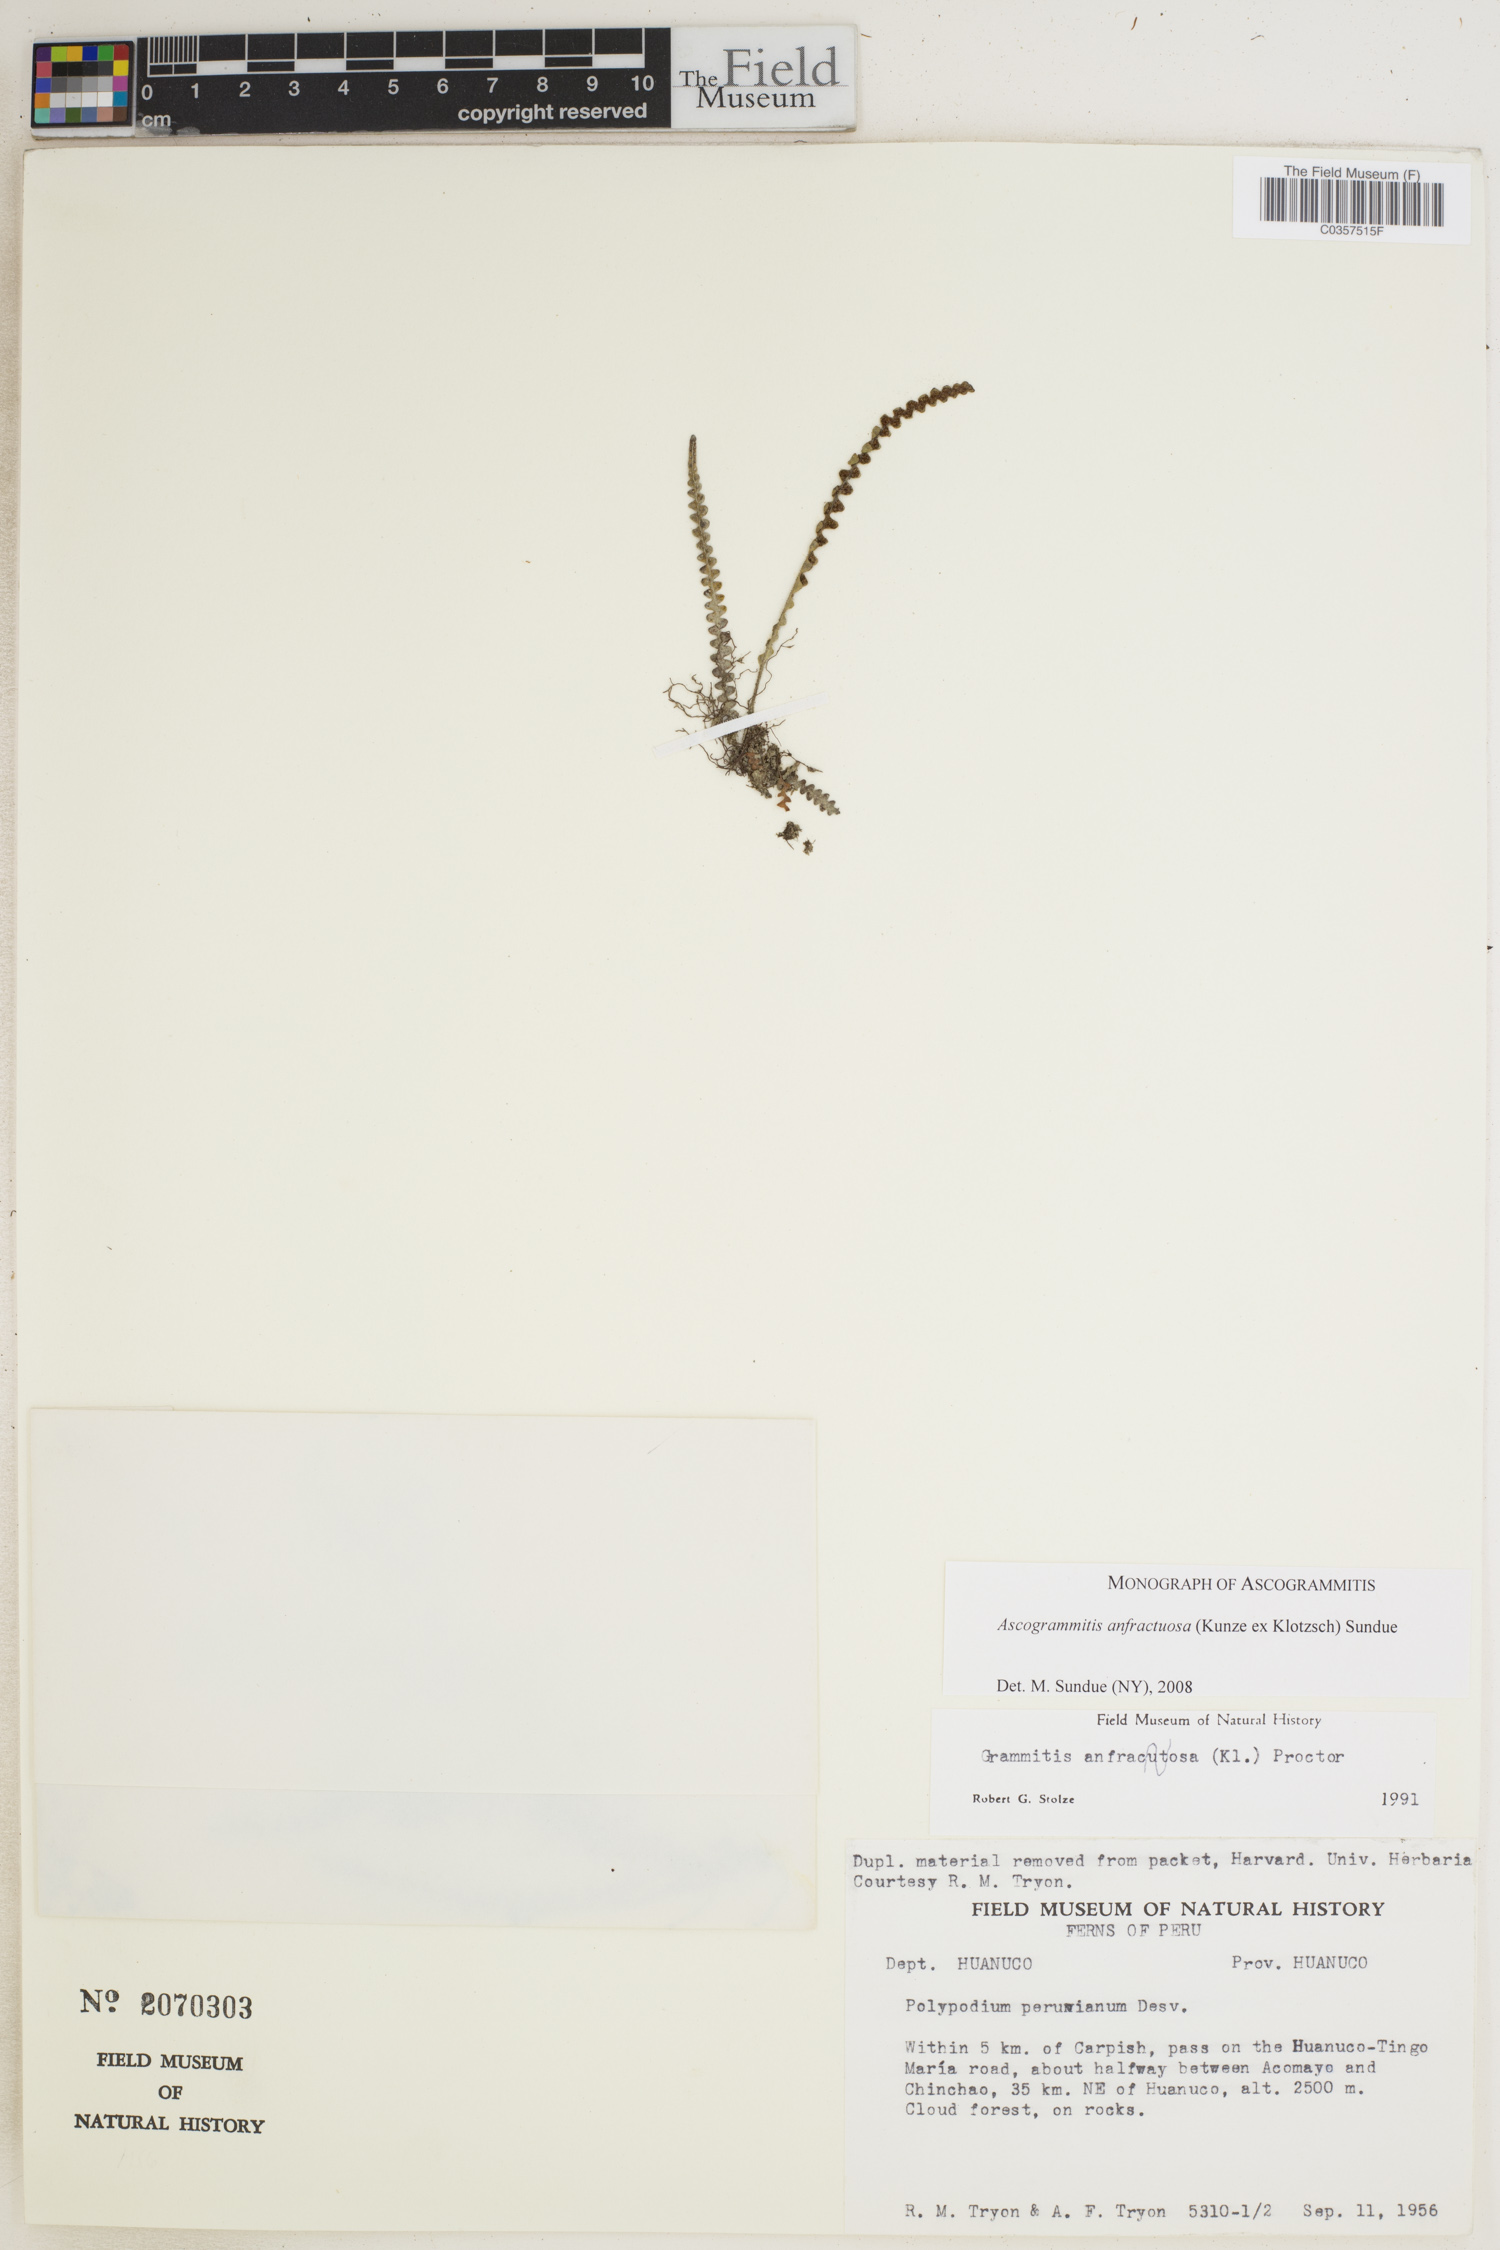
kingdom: Plantae
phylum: Tracheophyta
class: Polypodiopsida
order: Polypodiales
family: Polypodiaceae
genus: Ascogrammitis
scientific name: Ascogrammitis anfractuosa
